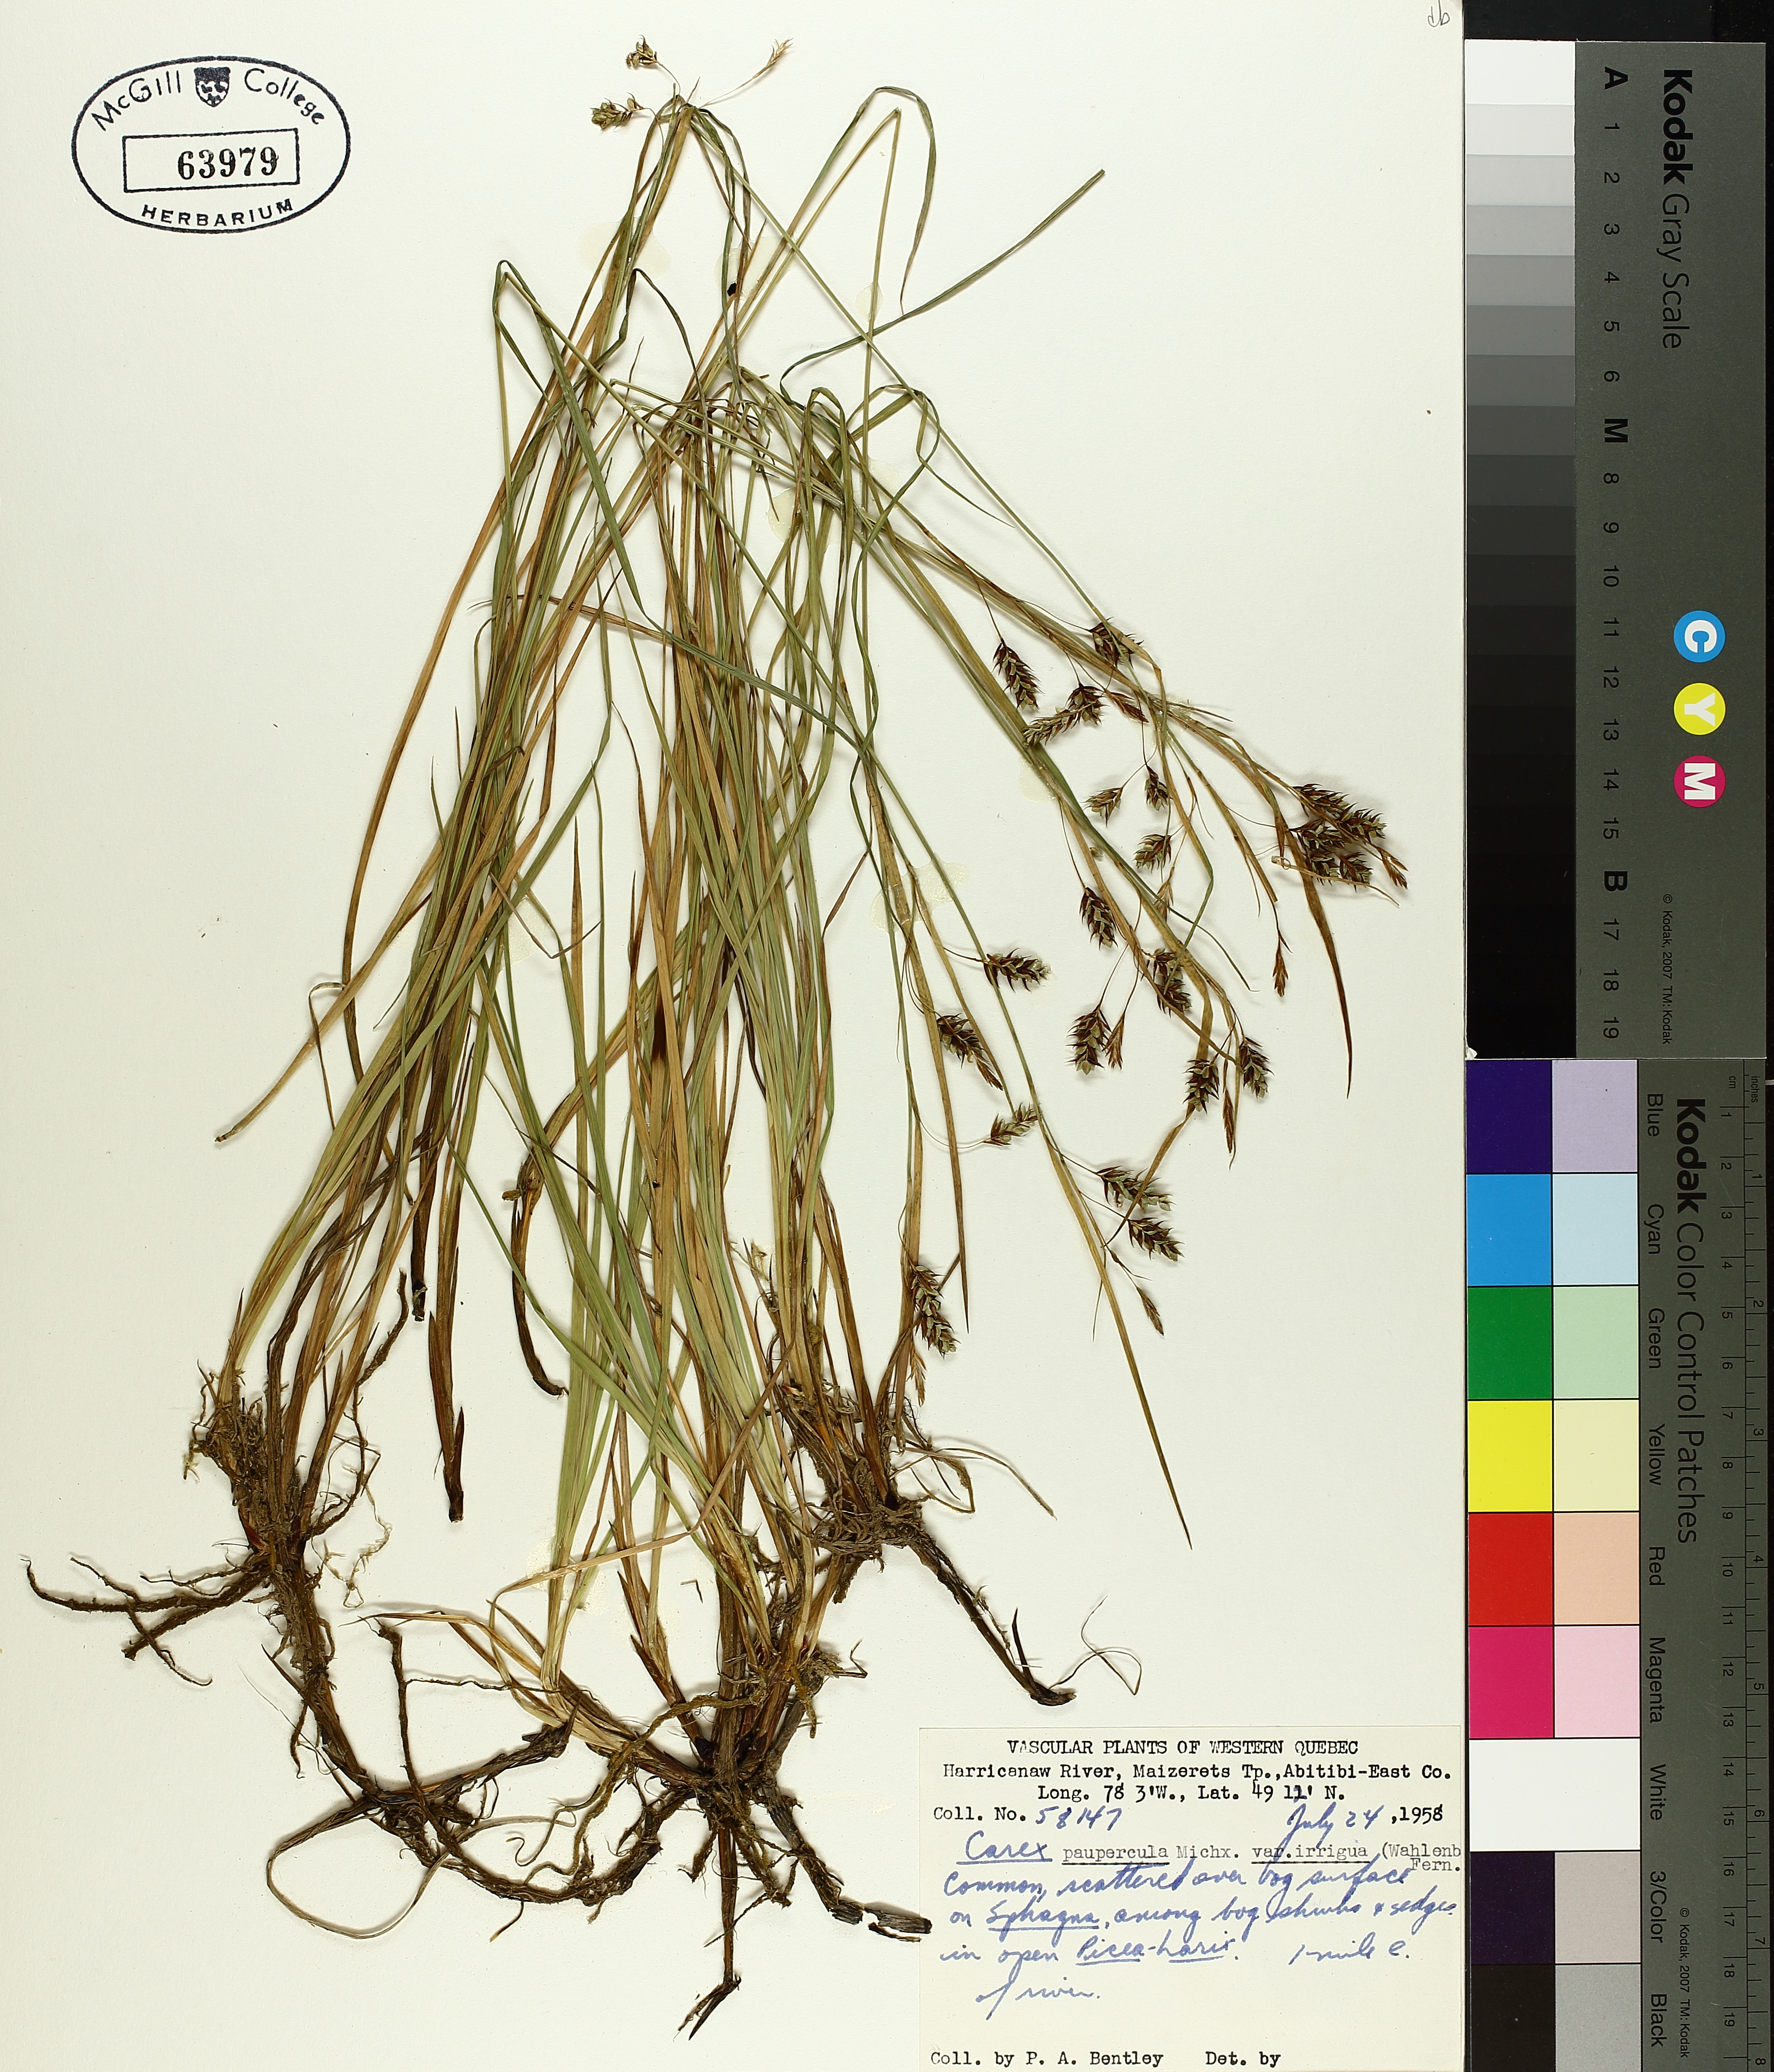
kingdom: Plantae
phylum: Tracheophyta
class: Liliopsida
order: Poales
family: Cyperaceae
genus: Carex
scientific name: Carex magellanica
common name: Bog sedge
